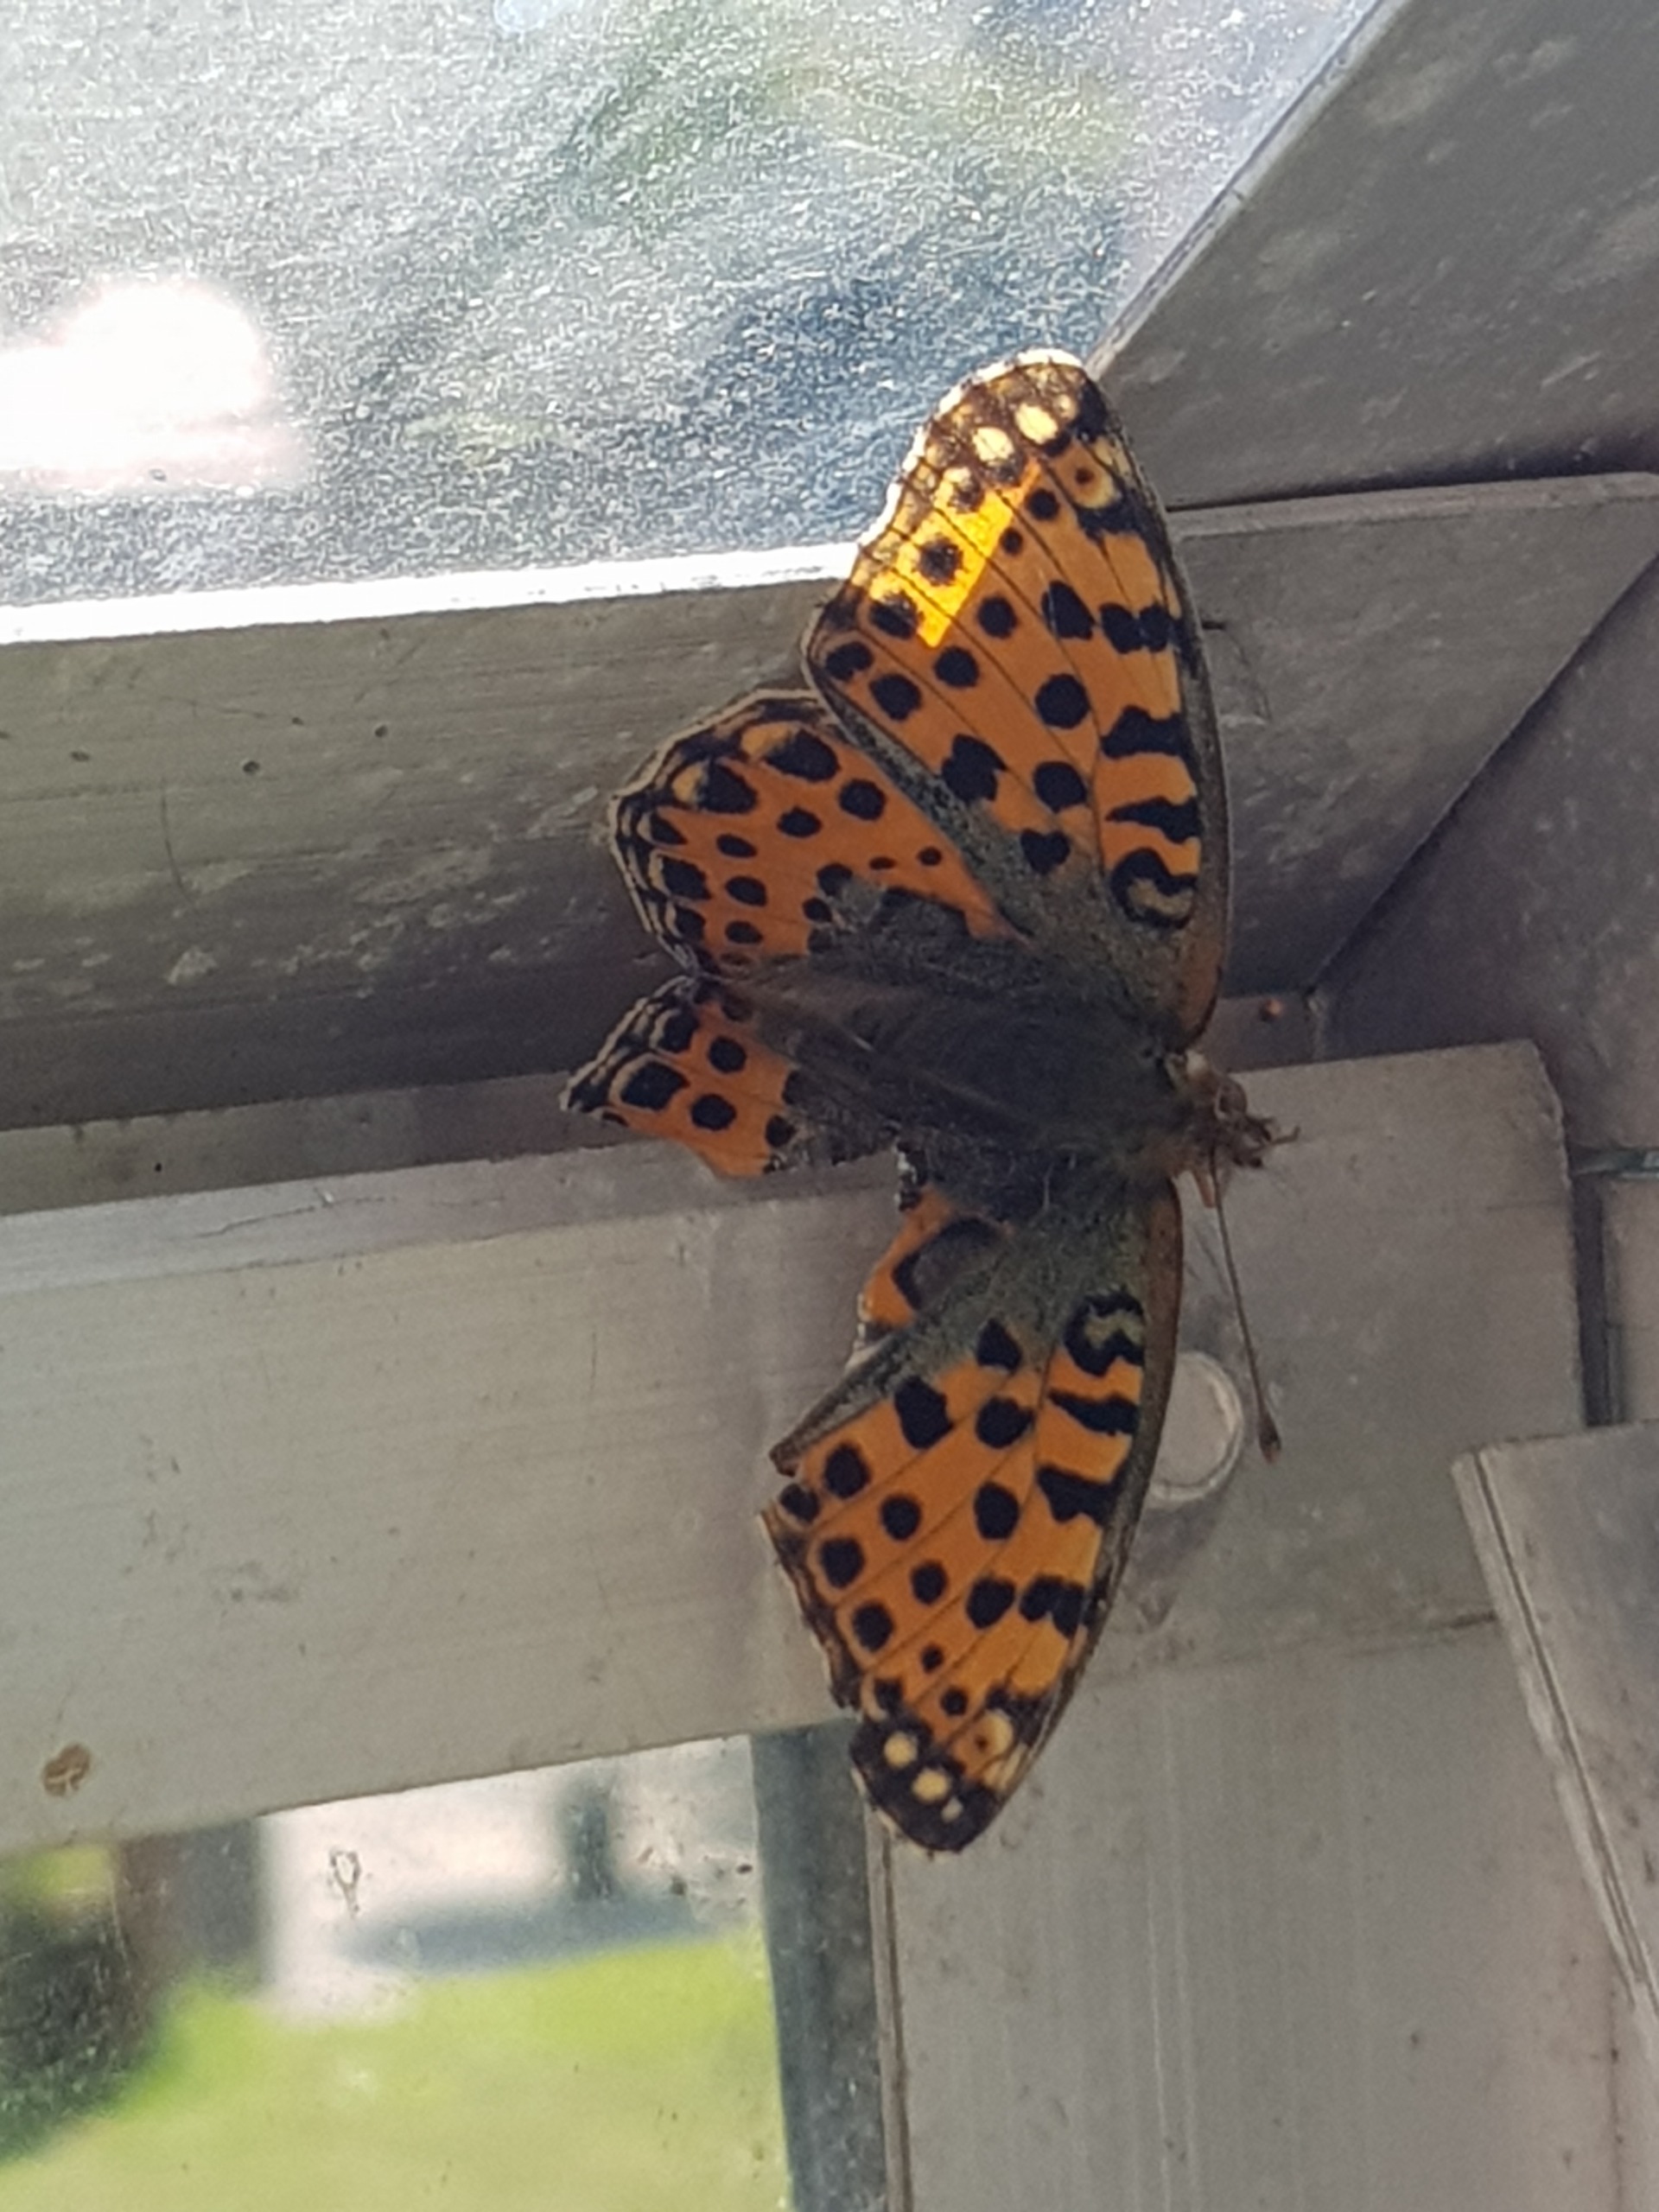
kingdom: Animalia
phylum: Arthropoda
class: Insecta
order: Lepidoptera
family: Nymphalidae
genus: Issoria
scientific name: Issoria lathonia
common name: Storplettet perlemorsommerfugl
